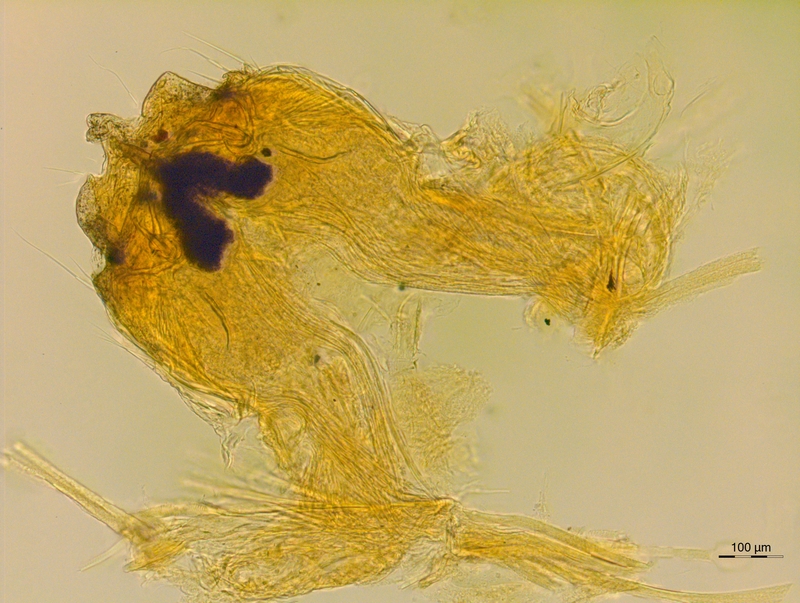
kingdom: Animalia
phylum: Arthropoda
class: Diplopoda
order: Chordeumatida
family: Neoatractosomatidae
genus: Paeonisoma
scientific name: Paeonisoma faucium
